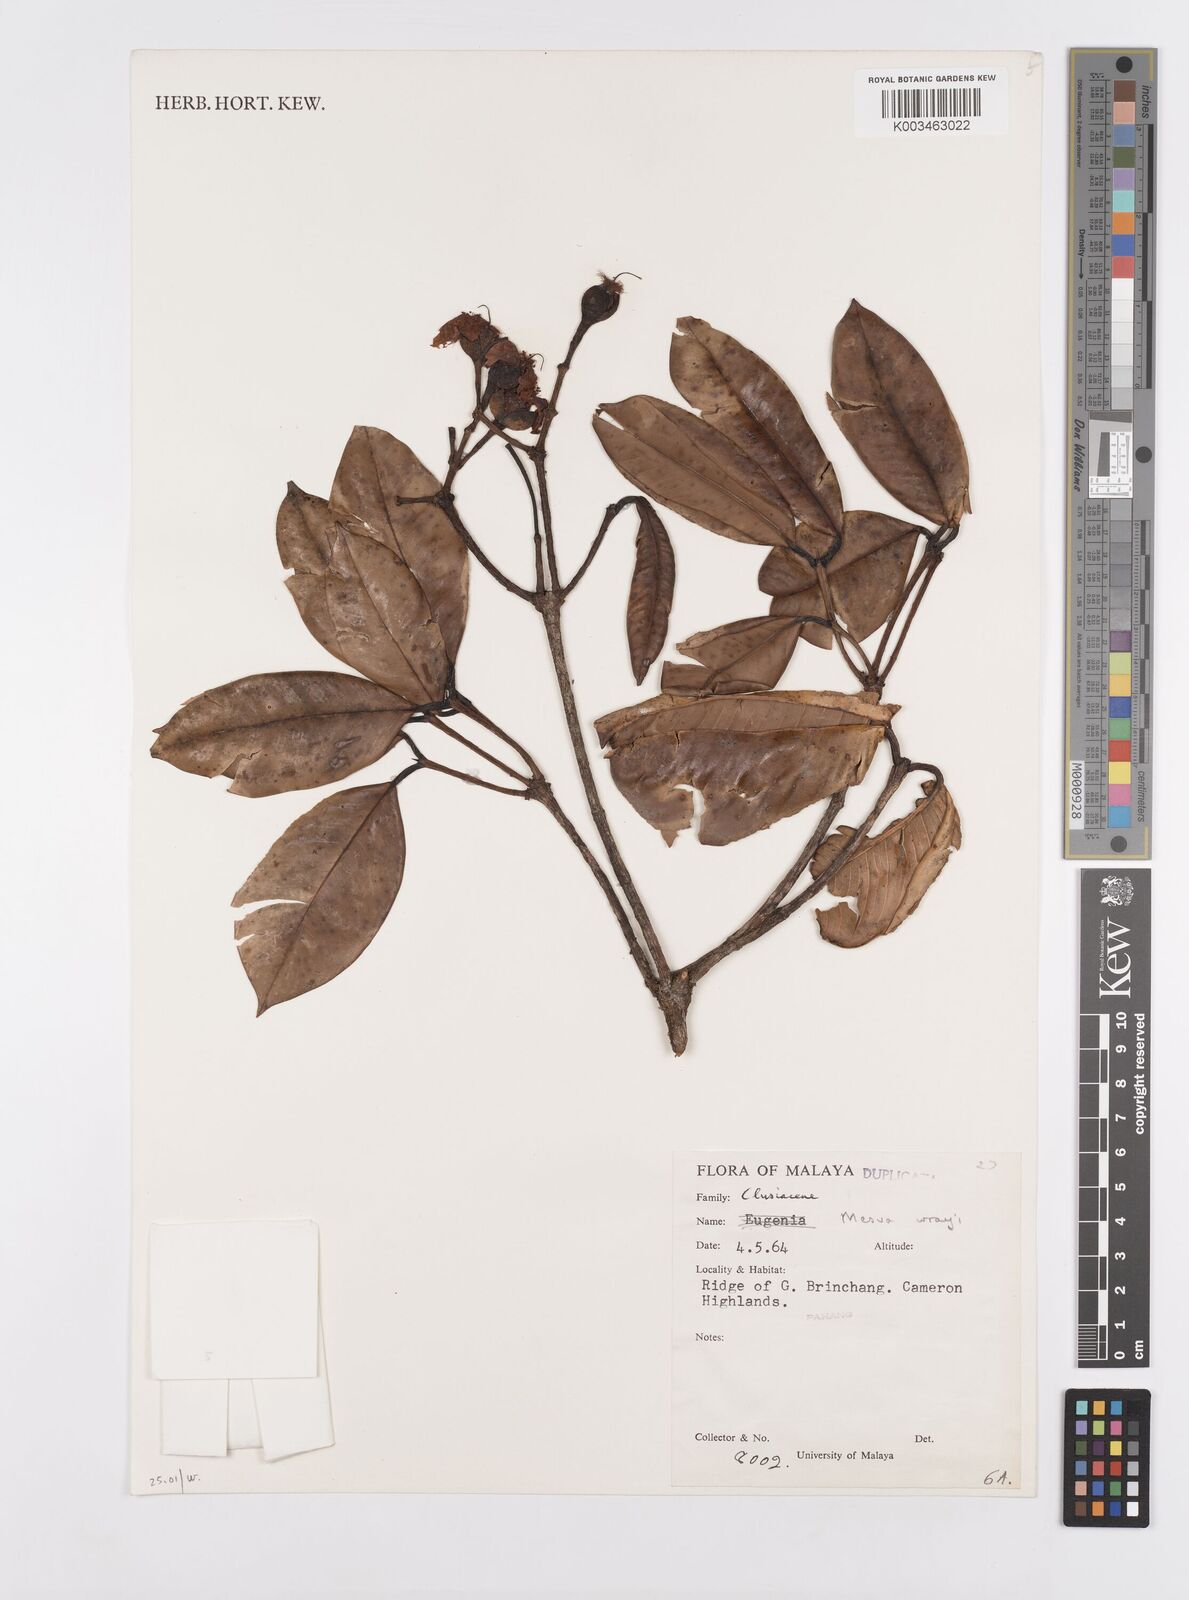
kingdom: Plantae
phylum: Tracheophyta
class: Magnoliopsida
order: Malpighiales
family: Calophyllaceae
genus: Kayea
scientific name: Kayea wrayi
